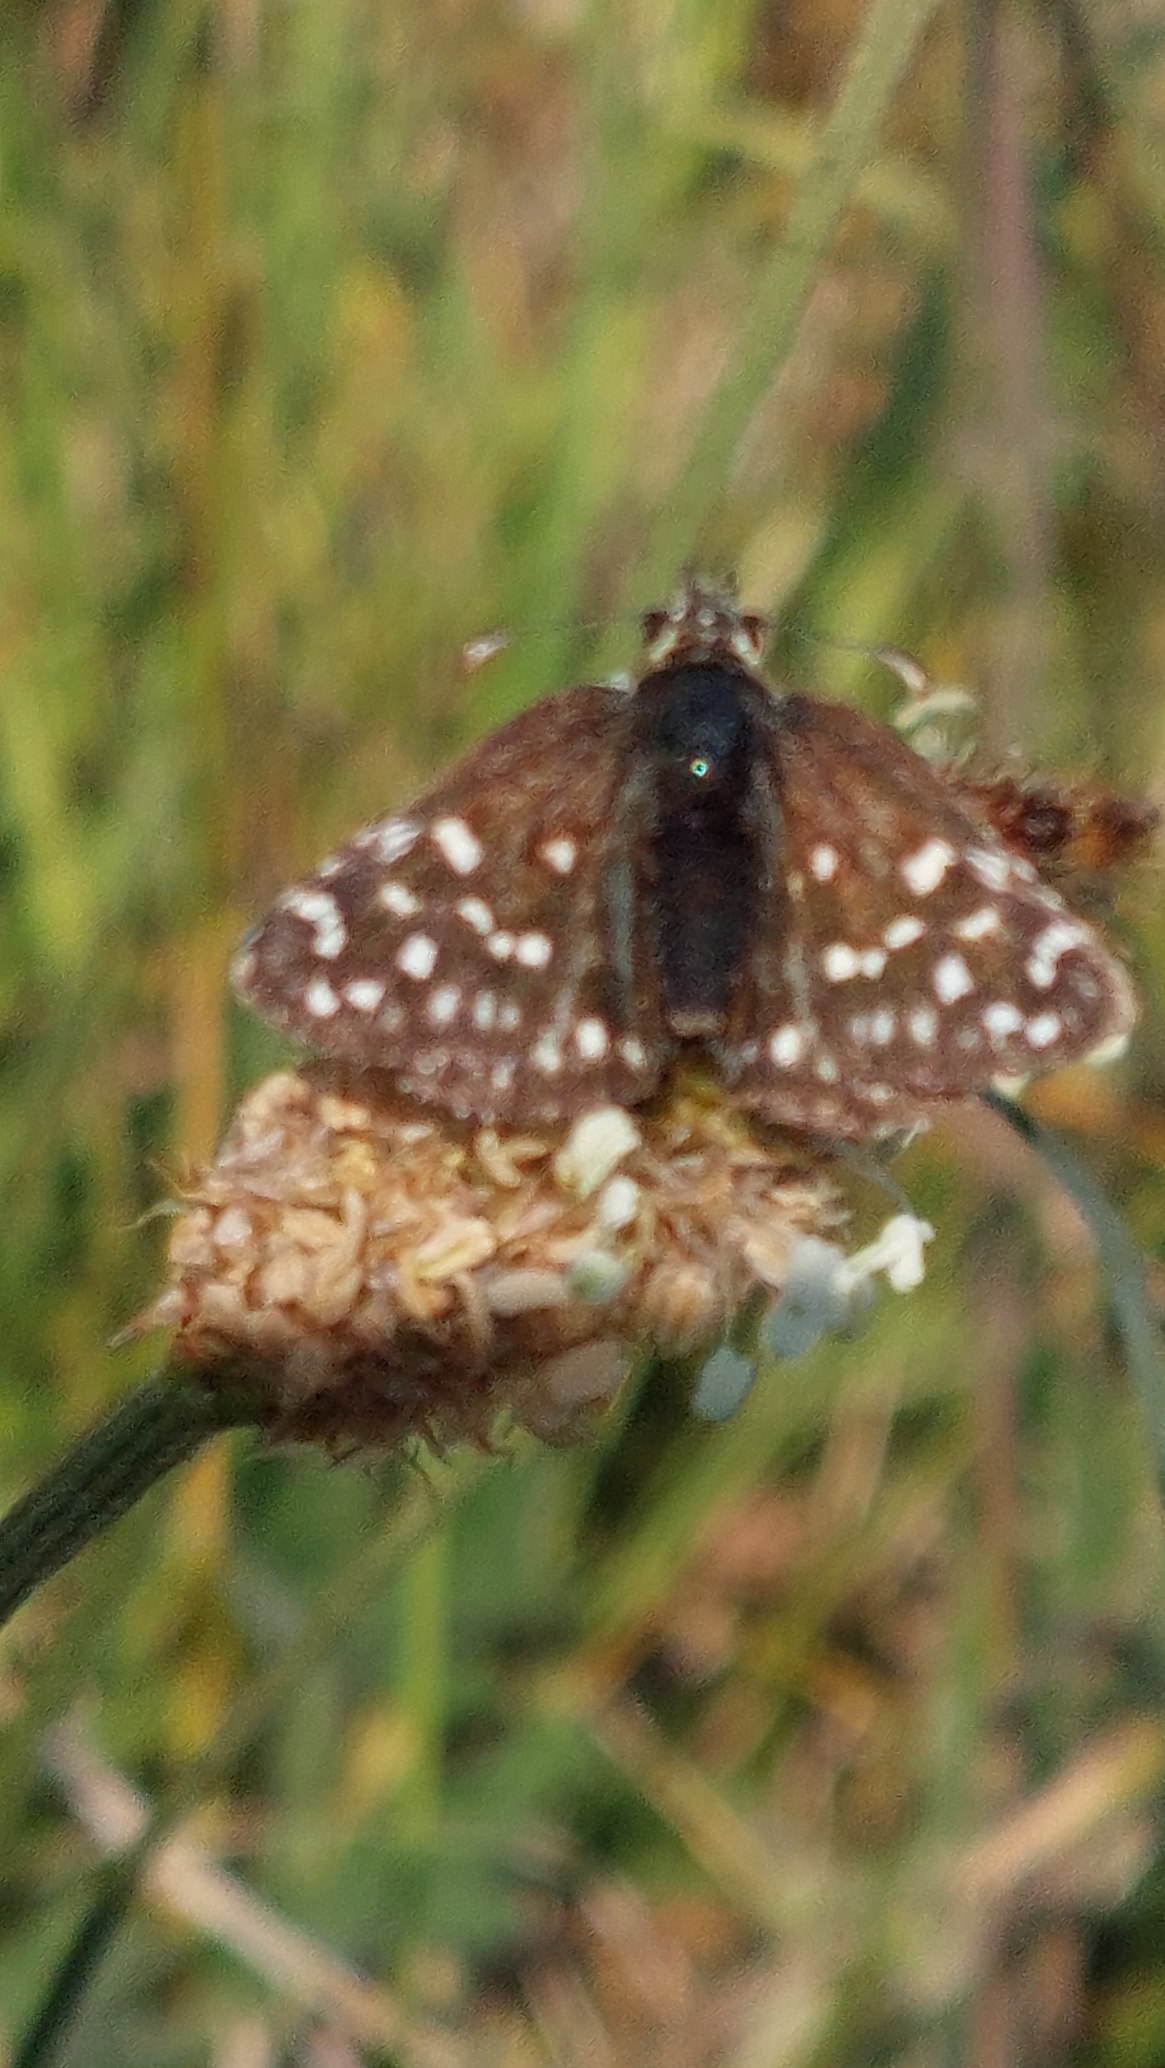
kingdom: Animalia
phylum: Arthropoda
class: Insecta
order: Lepidoptera
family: Hesperiidae
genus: Pyrgus
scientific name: Pyrgus malvae
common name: Spættet bredpande
